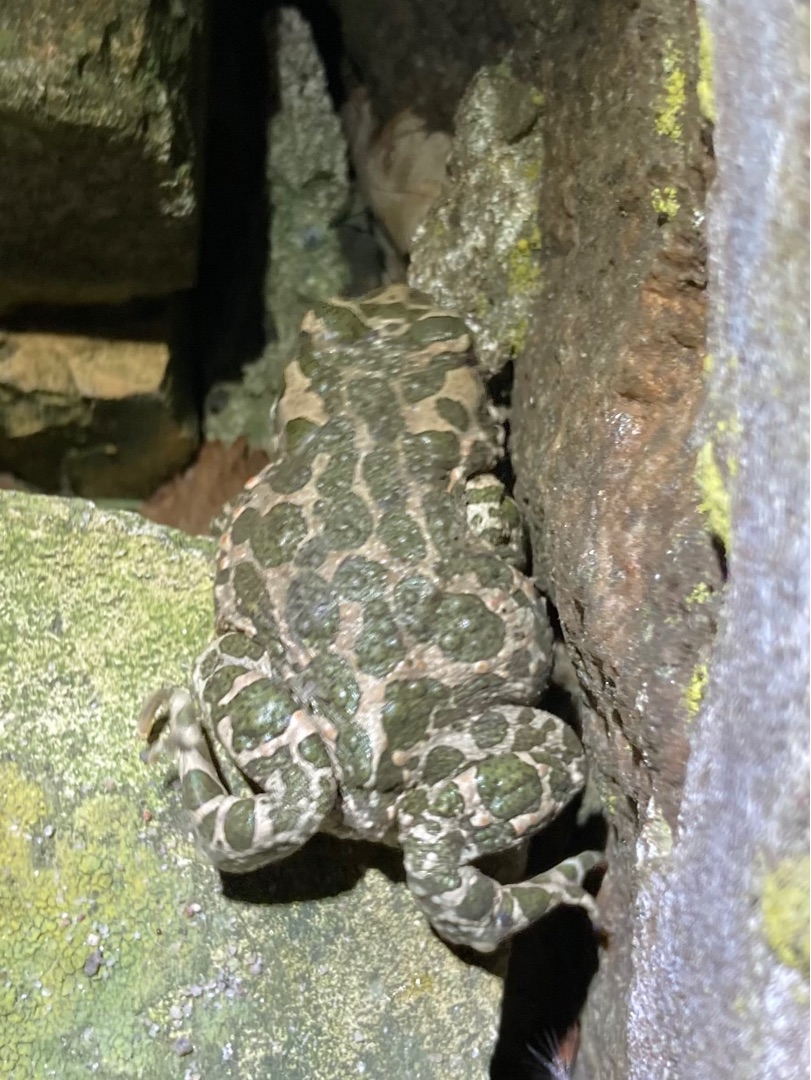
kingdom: Animalia
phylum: Chordata
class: Amphibia
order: Anura
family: Bufonidae
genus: Bufotes
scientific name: Bufotes viridis
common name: Grønbroget tudse
